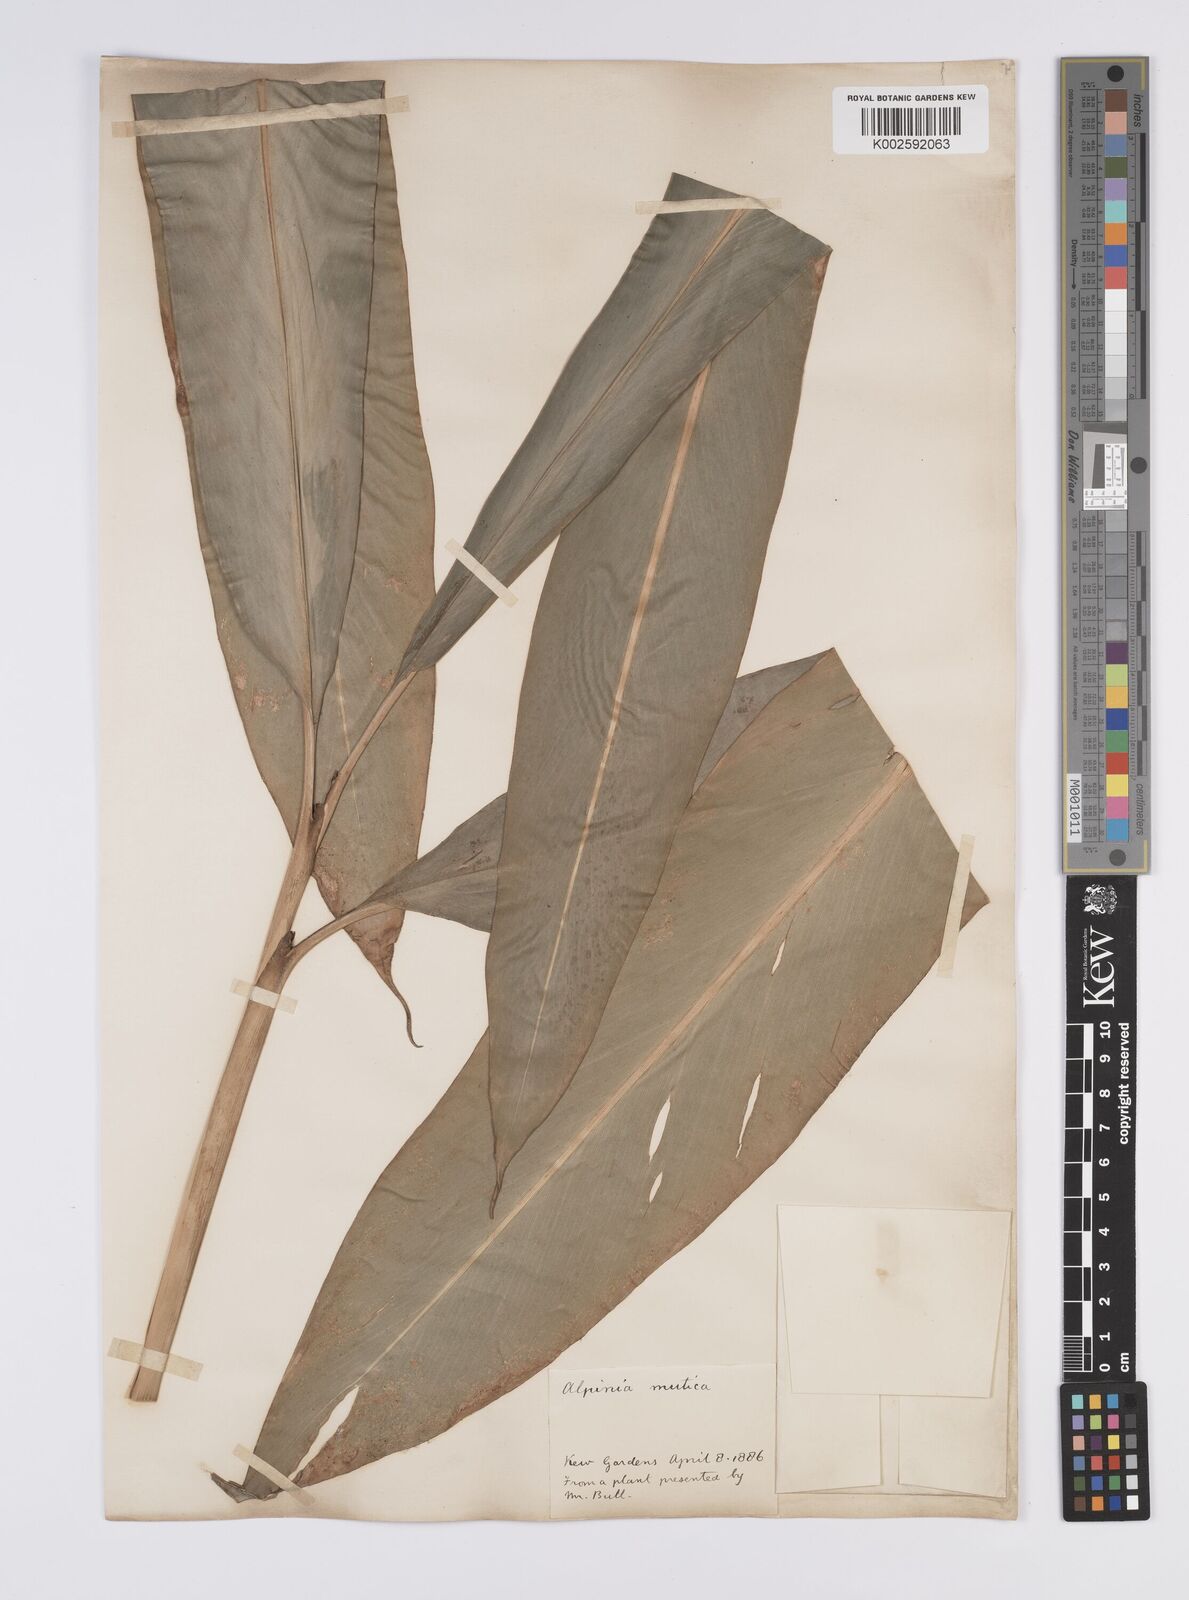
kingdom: Plantae
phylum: Tracheophyta
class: Liliopsida
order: Zingiberales
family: Zingiberaceae
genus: Alpinia
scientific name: Alpinia mutica
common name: Small shell ginger
